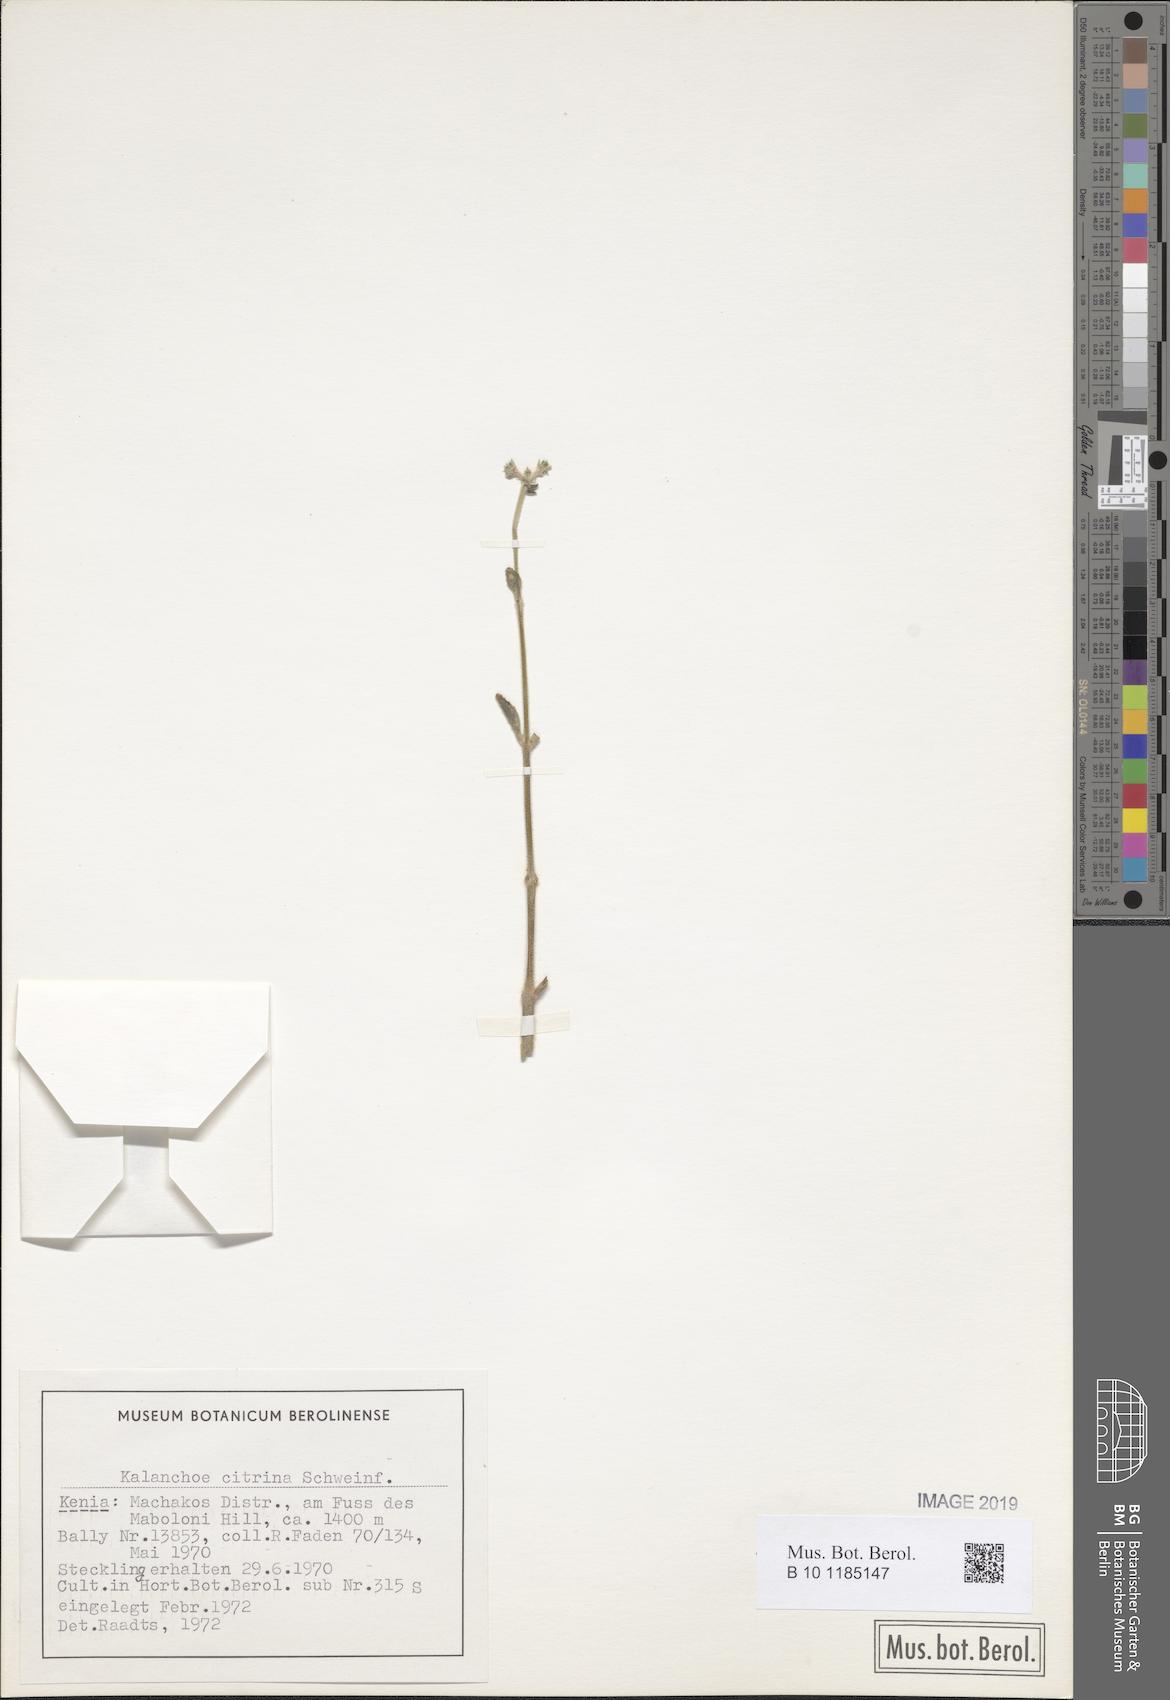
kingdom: Plantae
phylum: Tracheophyta
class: Magnoliopsida
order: Saxifragales
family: Crassulaceae
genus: Kalanchoe
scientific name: Kalanchoe citrina
